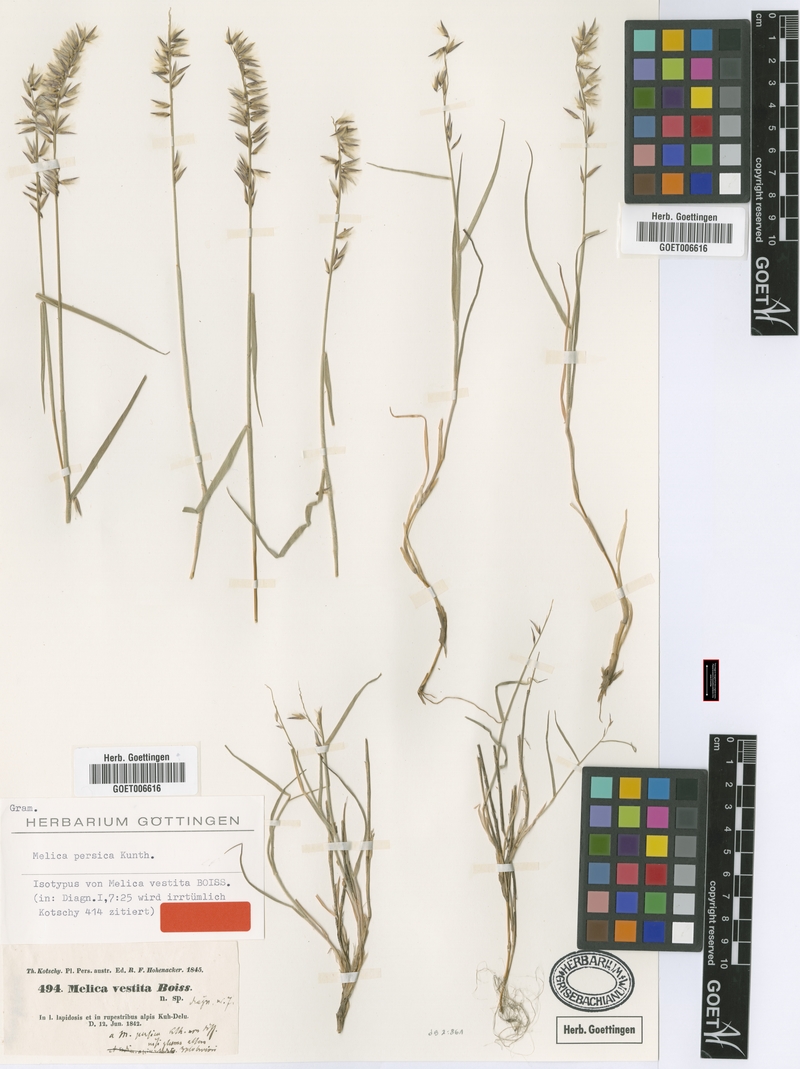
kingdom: Plantae
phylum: Tracheophyta
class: Liliopsida
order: Poales
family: Poaceae
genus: Melica
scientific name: Melica persica
